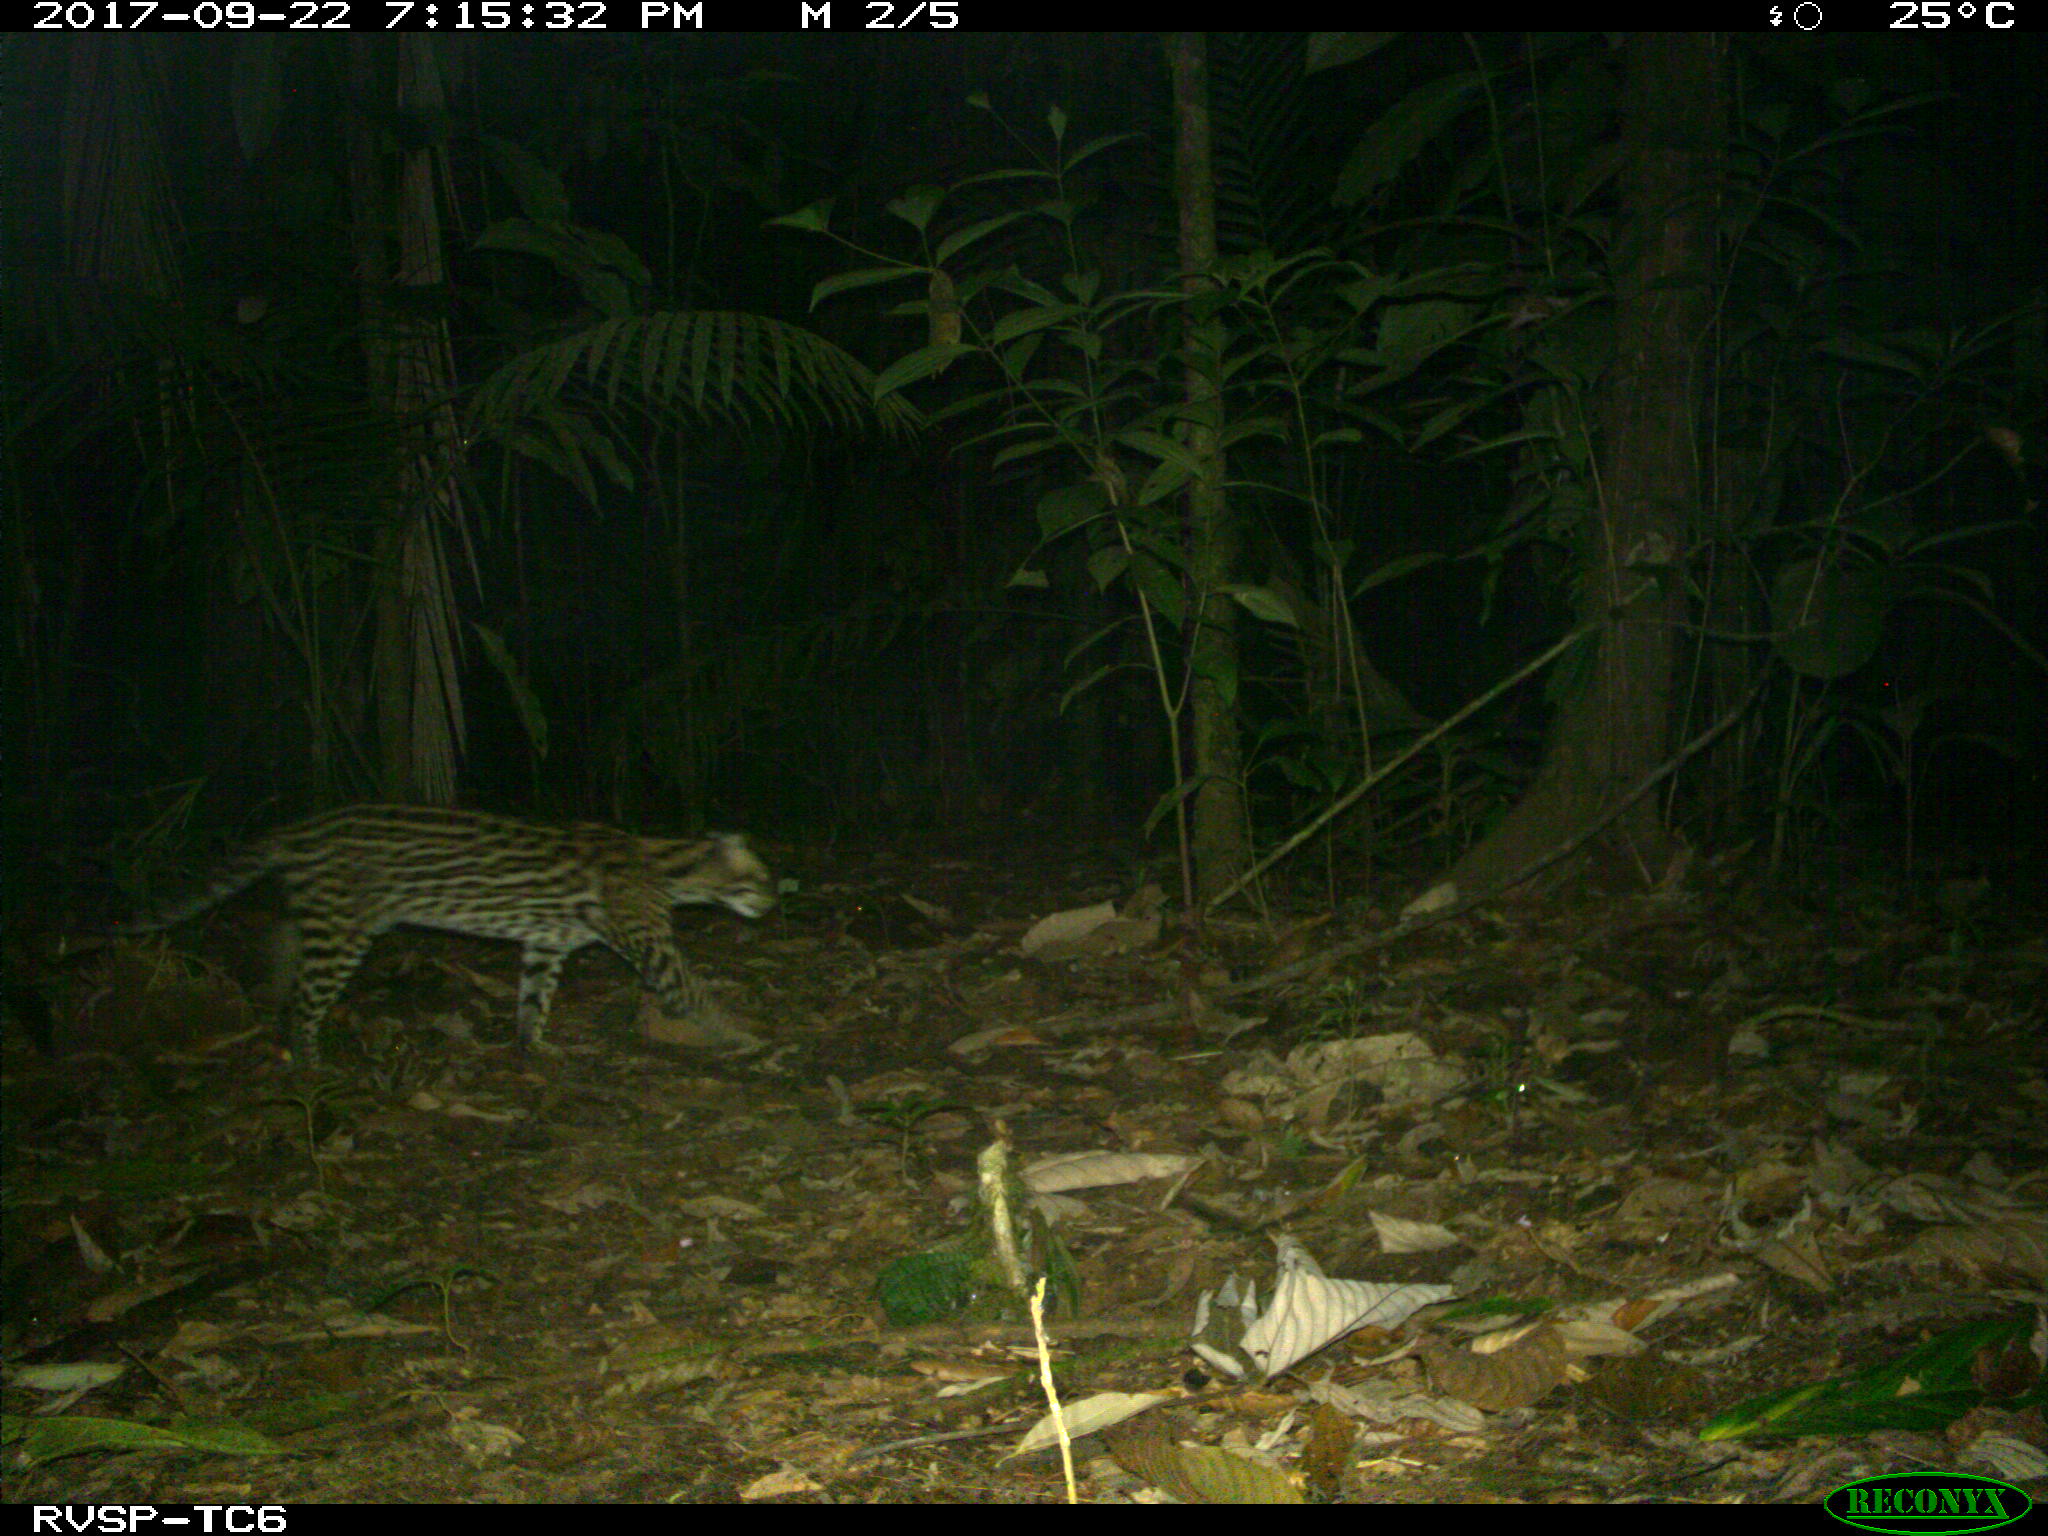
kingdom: Animalia
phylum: Chordata
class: Mammalia
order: Carnivora
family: Felidae
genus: Leopardus
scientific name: Leopardus pardalis
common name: Ocelot
